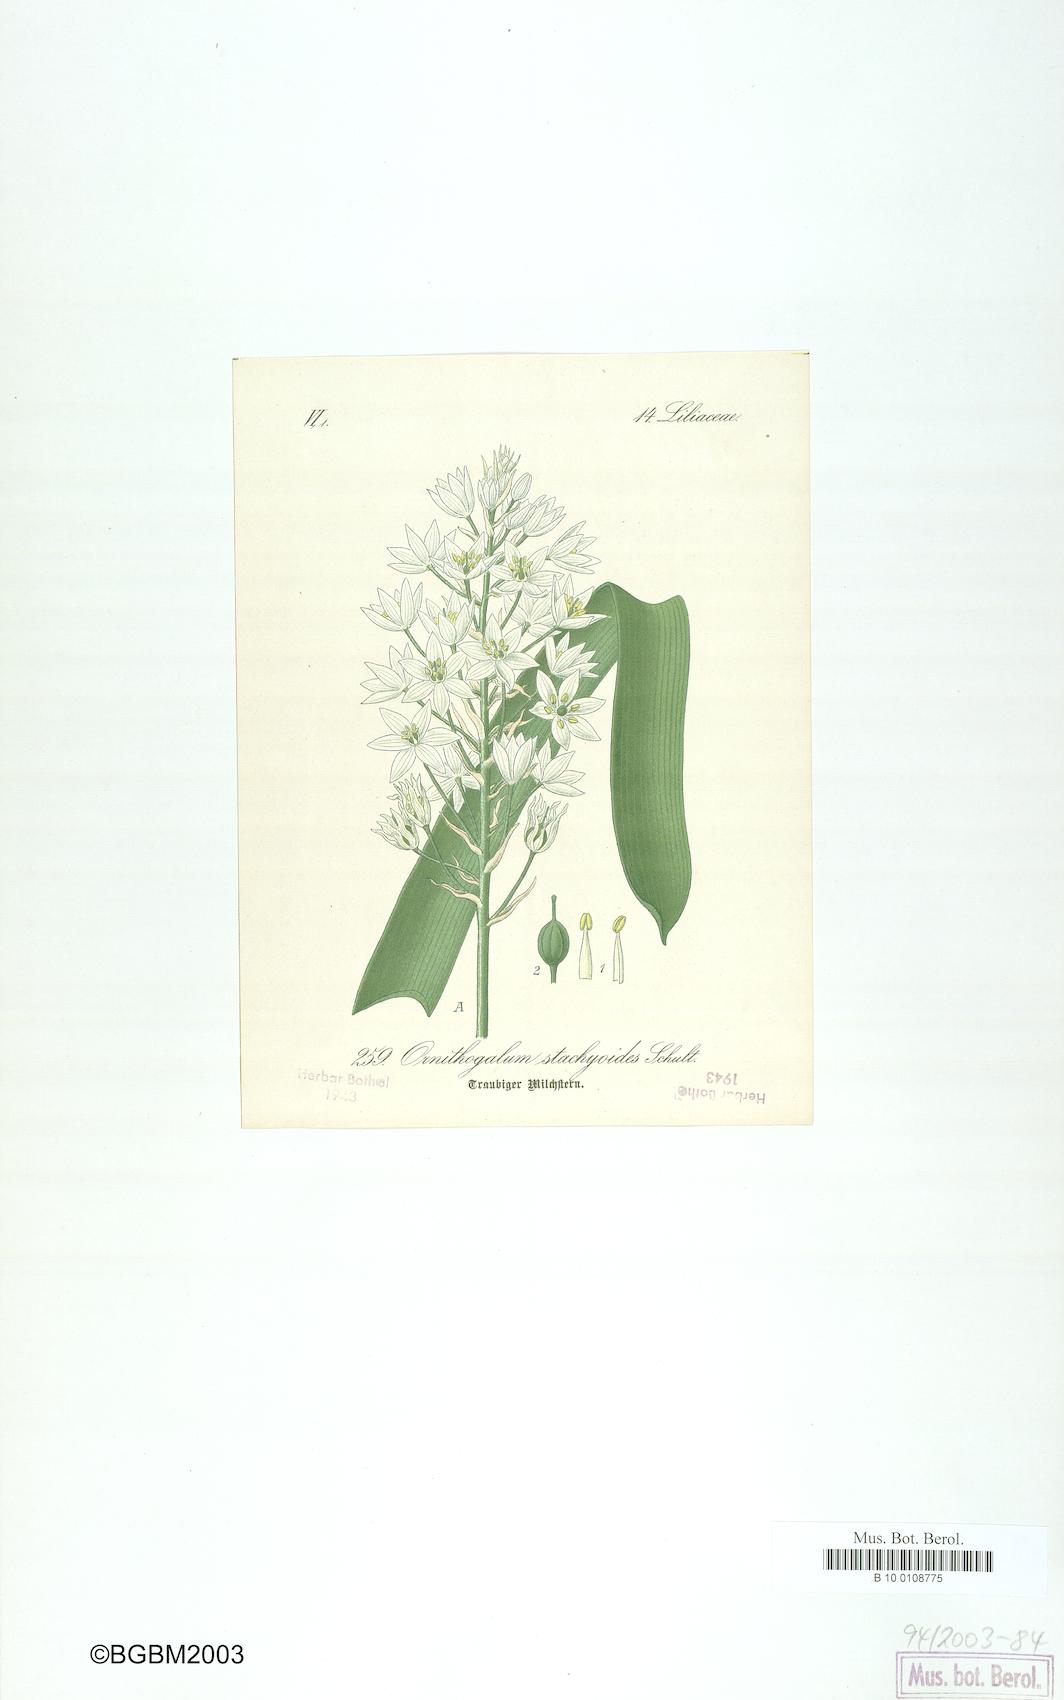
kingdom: Plantae
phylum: Tracheophyta
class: Liliopsida
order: Asparagales
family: Asparagaceae
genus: Ornithogalum
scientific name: Ornithogalum stachyoides
